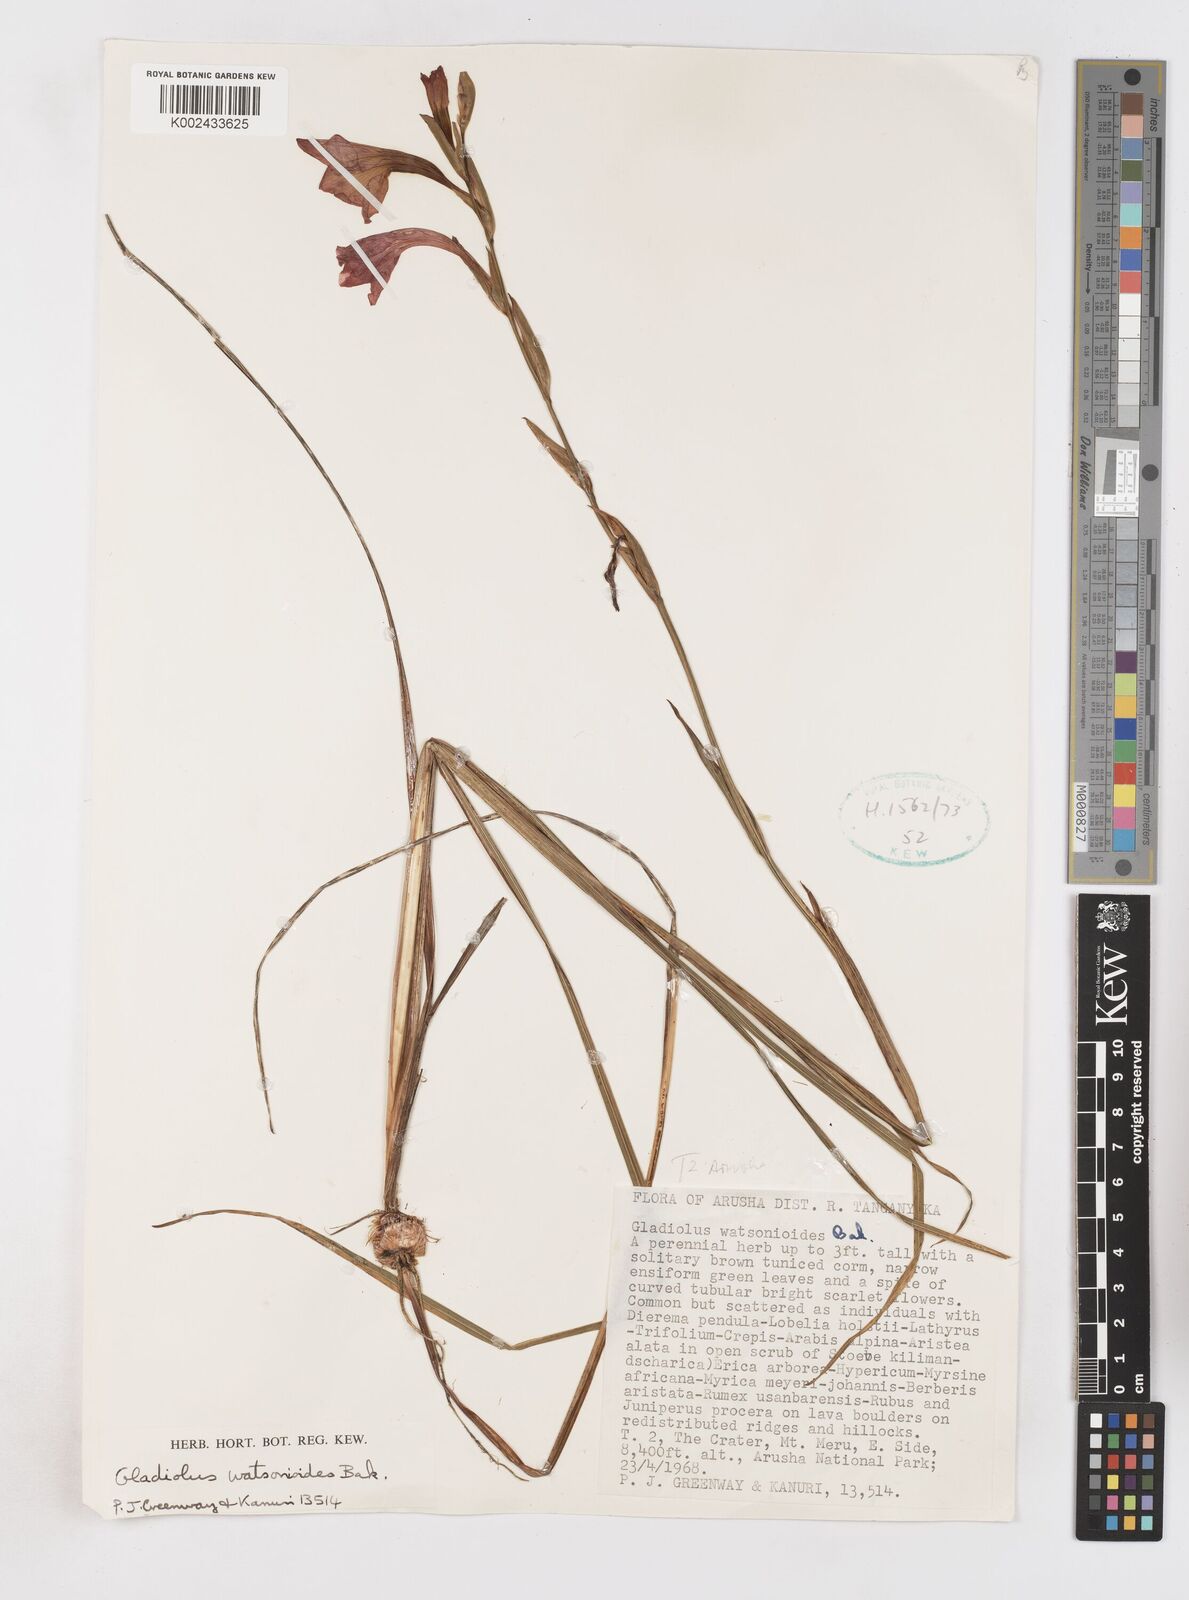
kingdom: Plantae
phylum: Tracheophyta
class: Liliopsida
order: Asparagales
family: Iridaceae
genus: Gladiolus
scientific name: Gladiolus watsonioides
